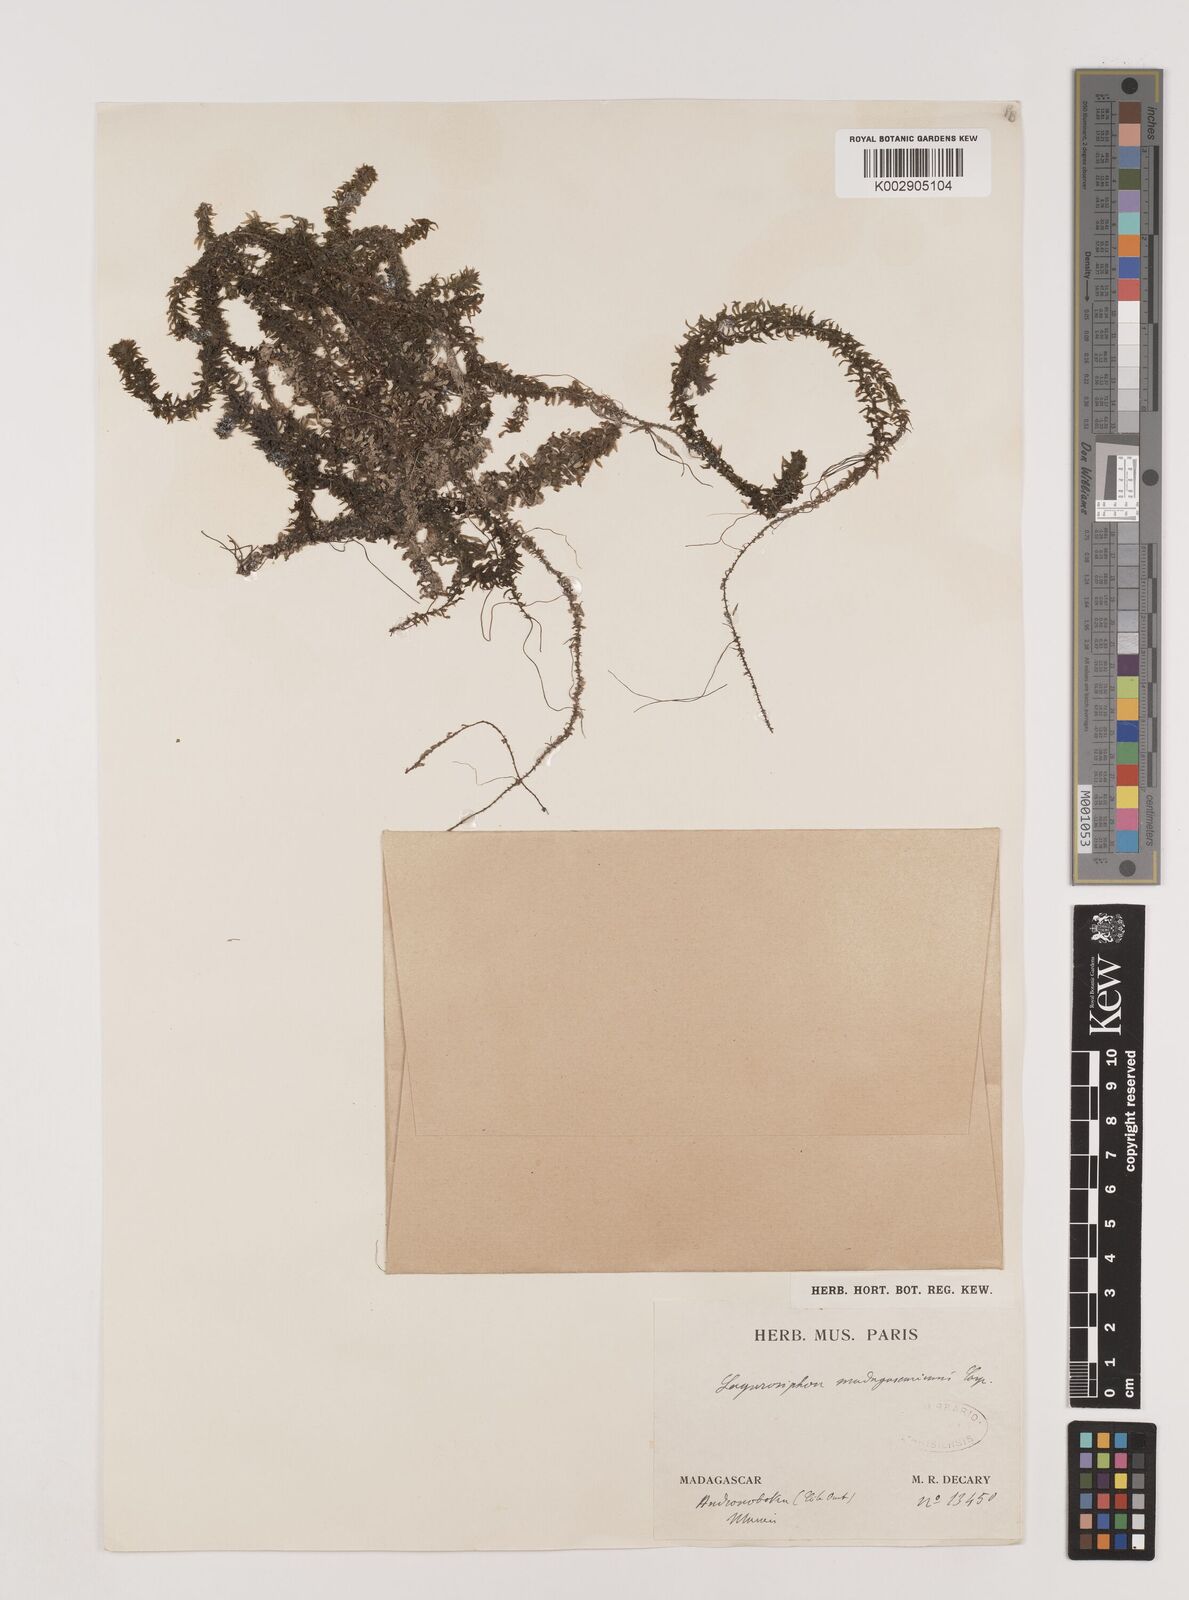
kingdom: Plantae
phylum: Tracheophyta
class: Liliopsida
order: Alismatales
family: Hydrocharitaceae
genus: Lagarosiphon
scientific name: Lagarosiphon madagascariensis
